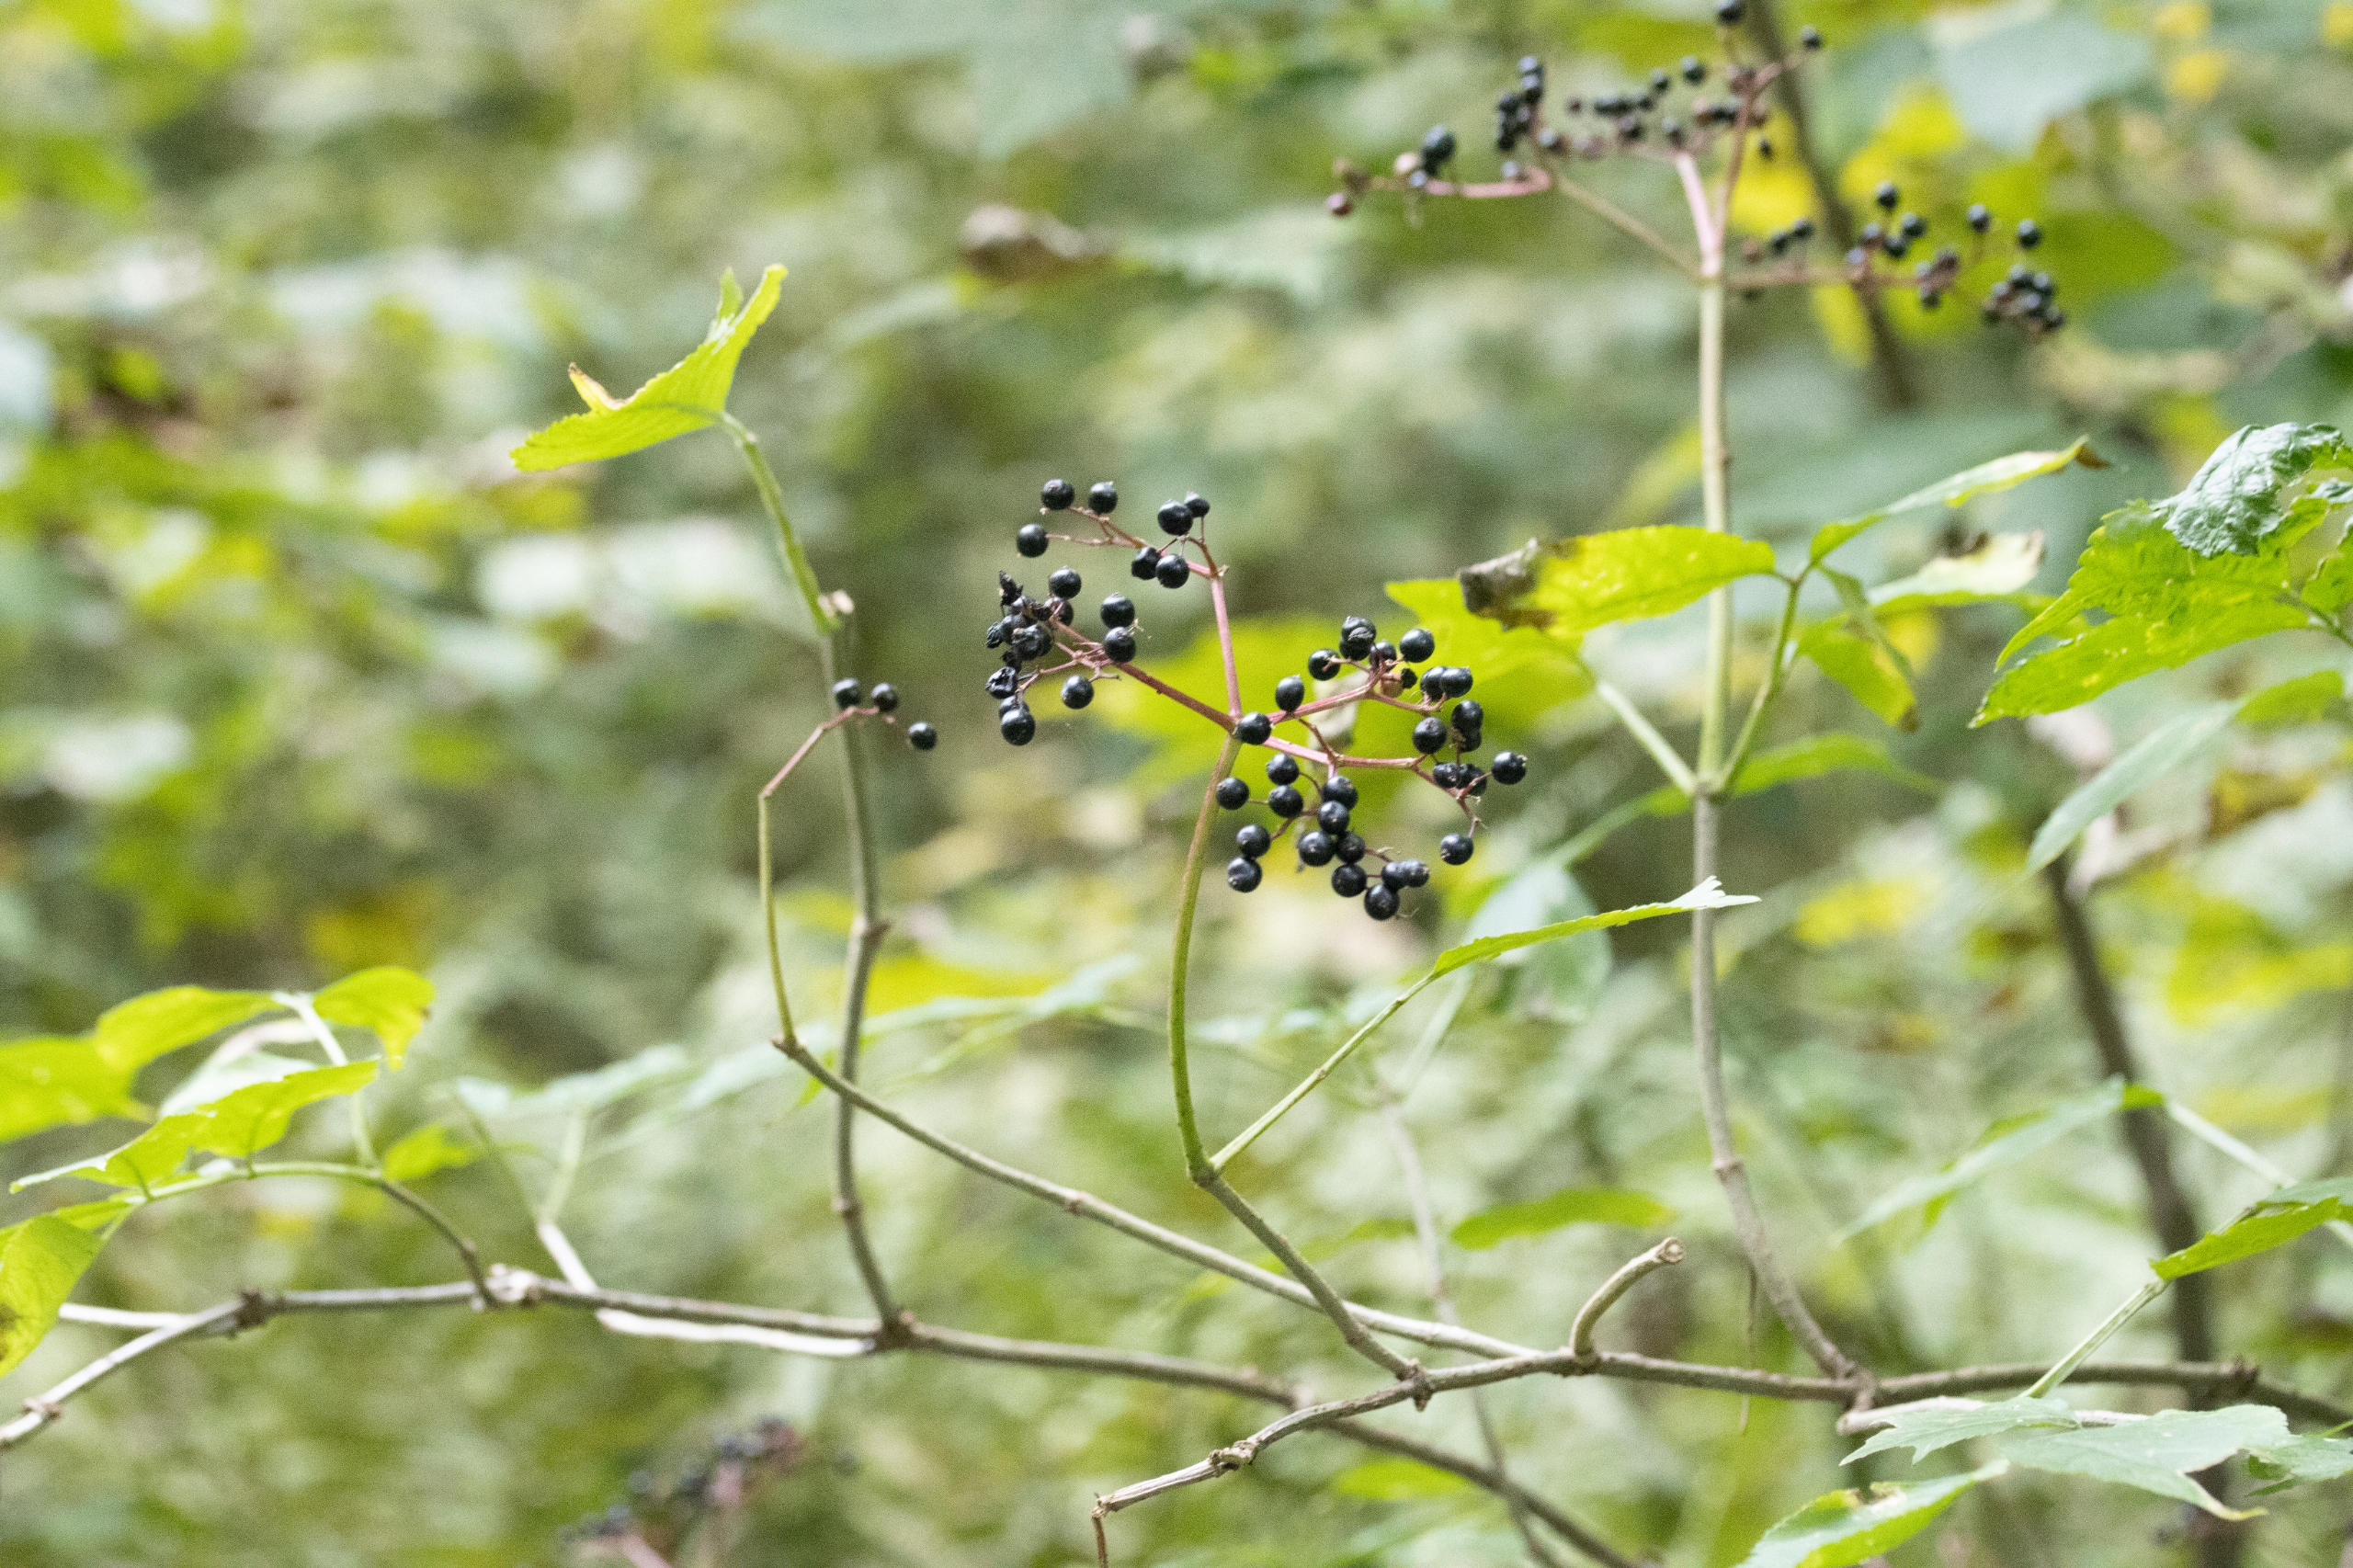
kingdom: Plantae
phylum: Tracheophyta
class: Magnoliopsida
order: Dipsacales
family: Viburnaceae
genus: Sambucus
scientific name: Sambucus nigra
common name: Almindelig hyld
